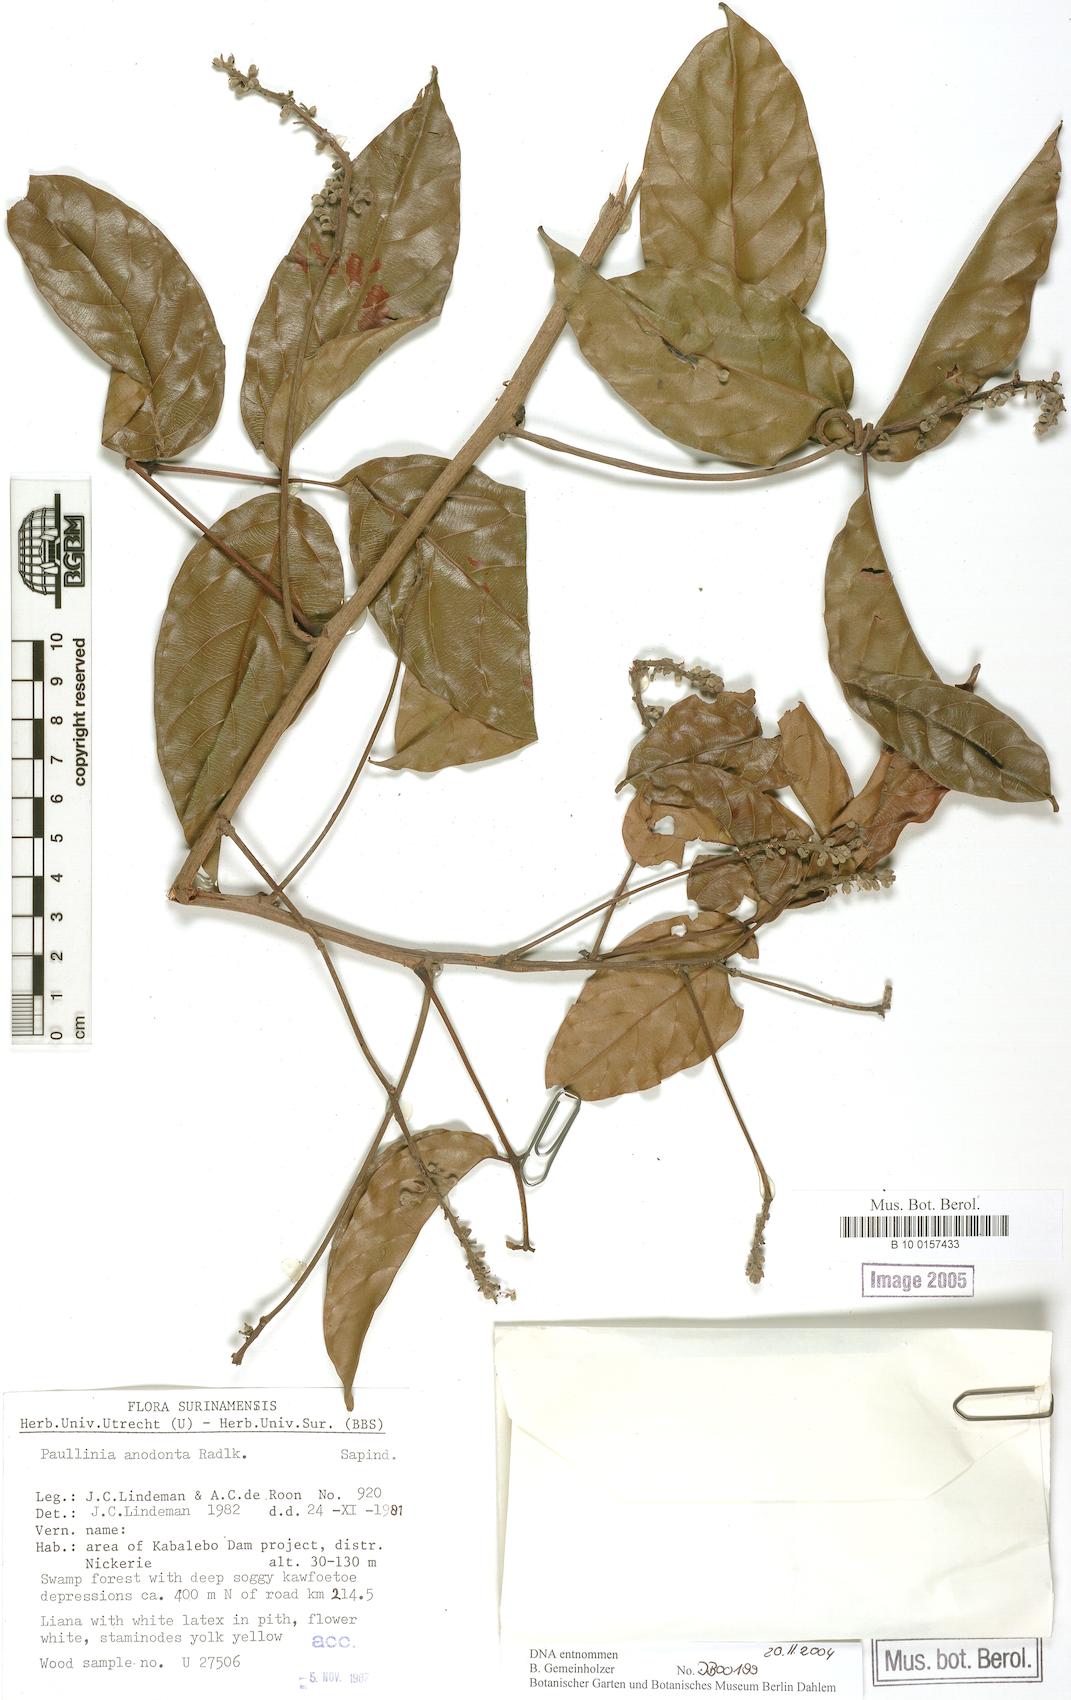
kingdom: Plantae
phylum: Tracheophyta
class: Magnoliopsida
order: Sapindales
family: Sapindaceae
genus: Paullinia
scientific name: Paullinia anodonta
